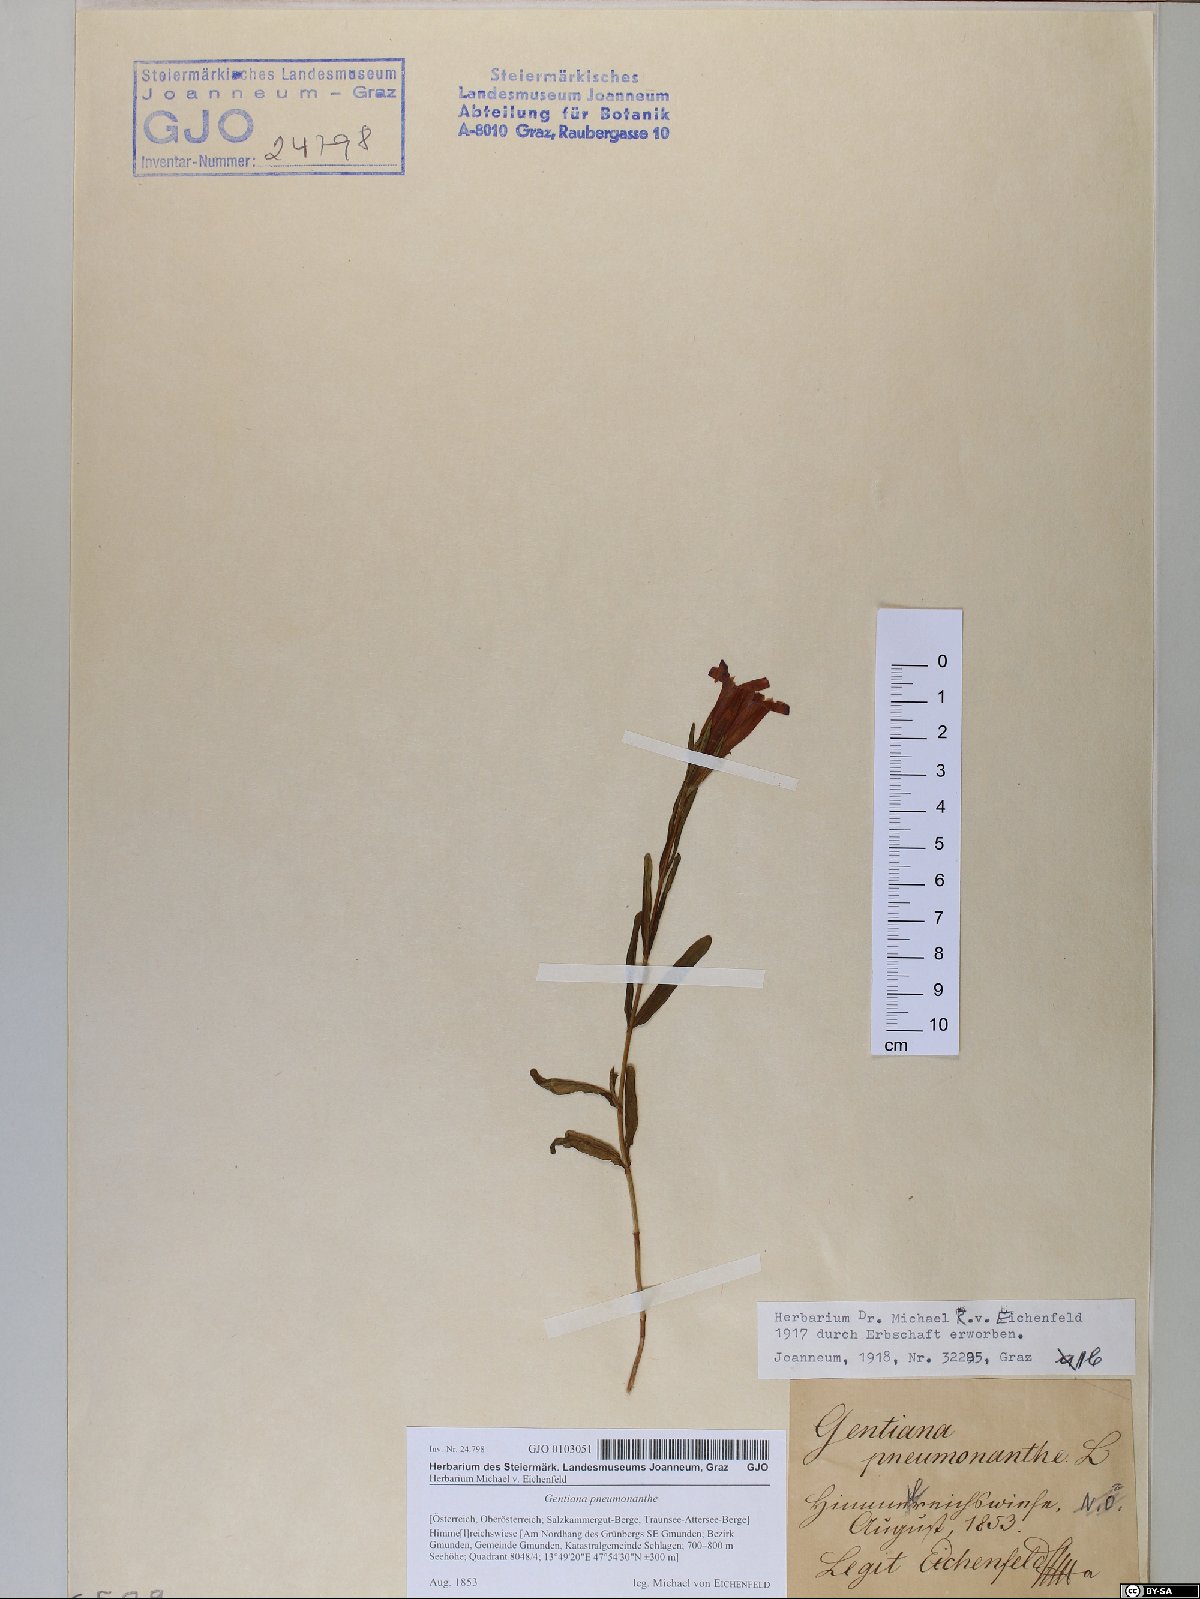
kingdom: Plantae
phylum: Tracheophyta
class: Magnoliopsida
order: Gentianales
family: Gentianaceae
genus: Gentiana
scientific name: Gentiana pneumonanthe
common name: Marsh gentian
